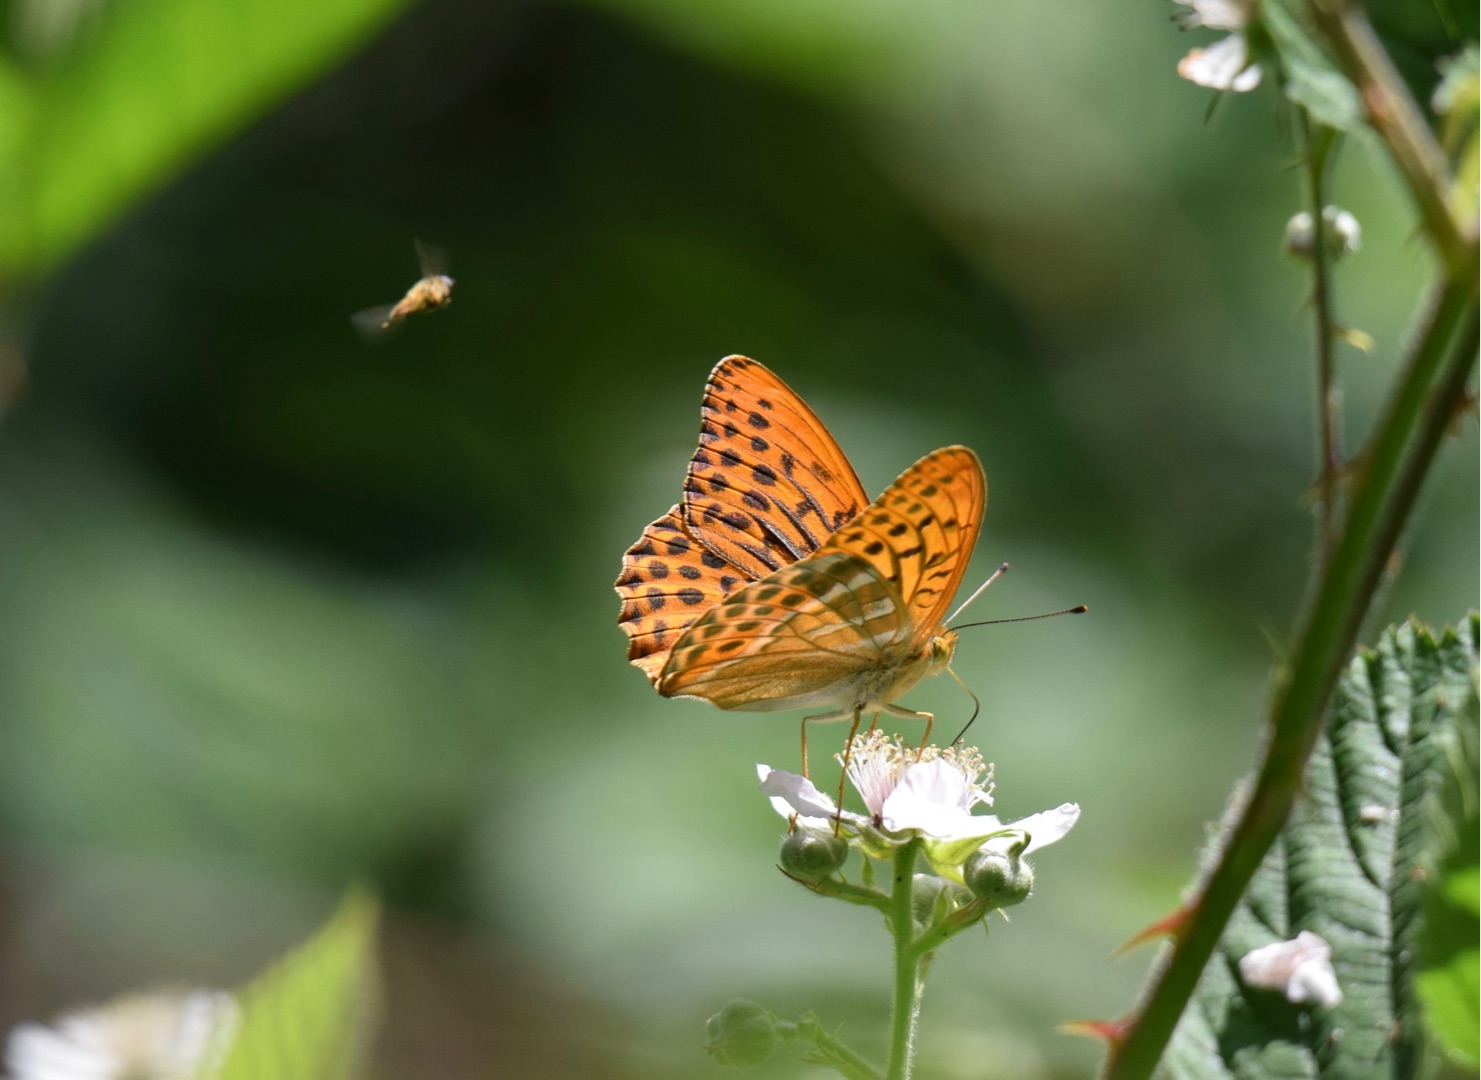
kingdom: Animalia
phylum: Arthropoda
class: Insecta
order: Lepidoptera
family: Nymphalidae
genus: Argynnis
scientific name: Argynnis paphia
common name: Kejserkåbe
